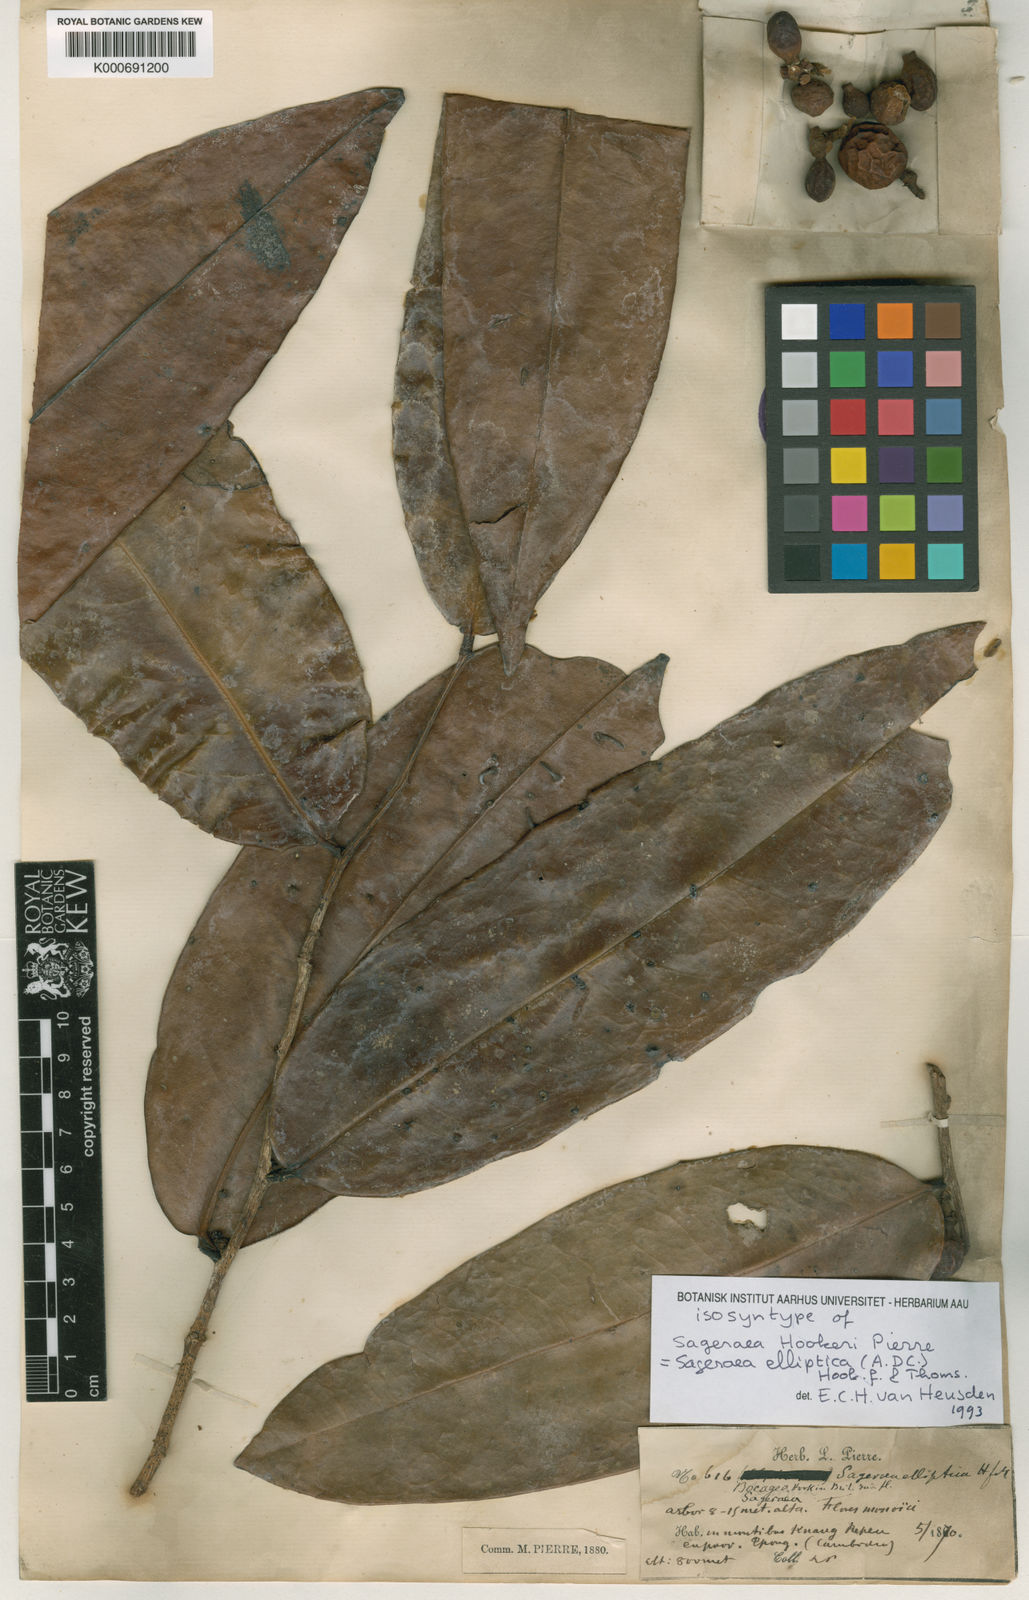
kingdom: Plantae
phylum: Tracheophyta
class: Magnoliopsida
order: Magnoliales
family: Annonaceae
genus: Sageraea
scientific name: Sageraea elliptica
